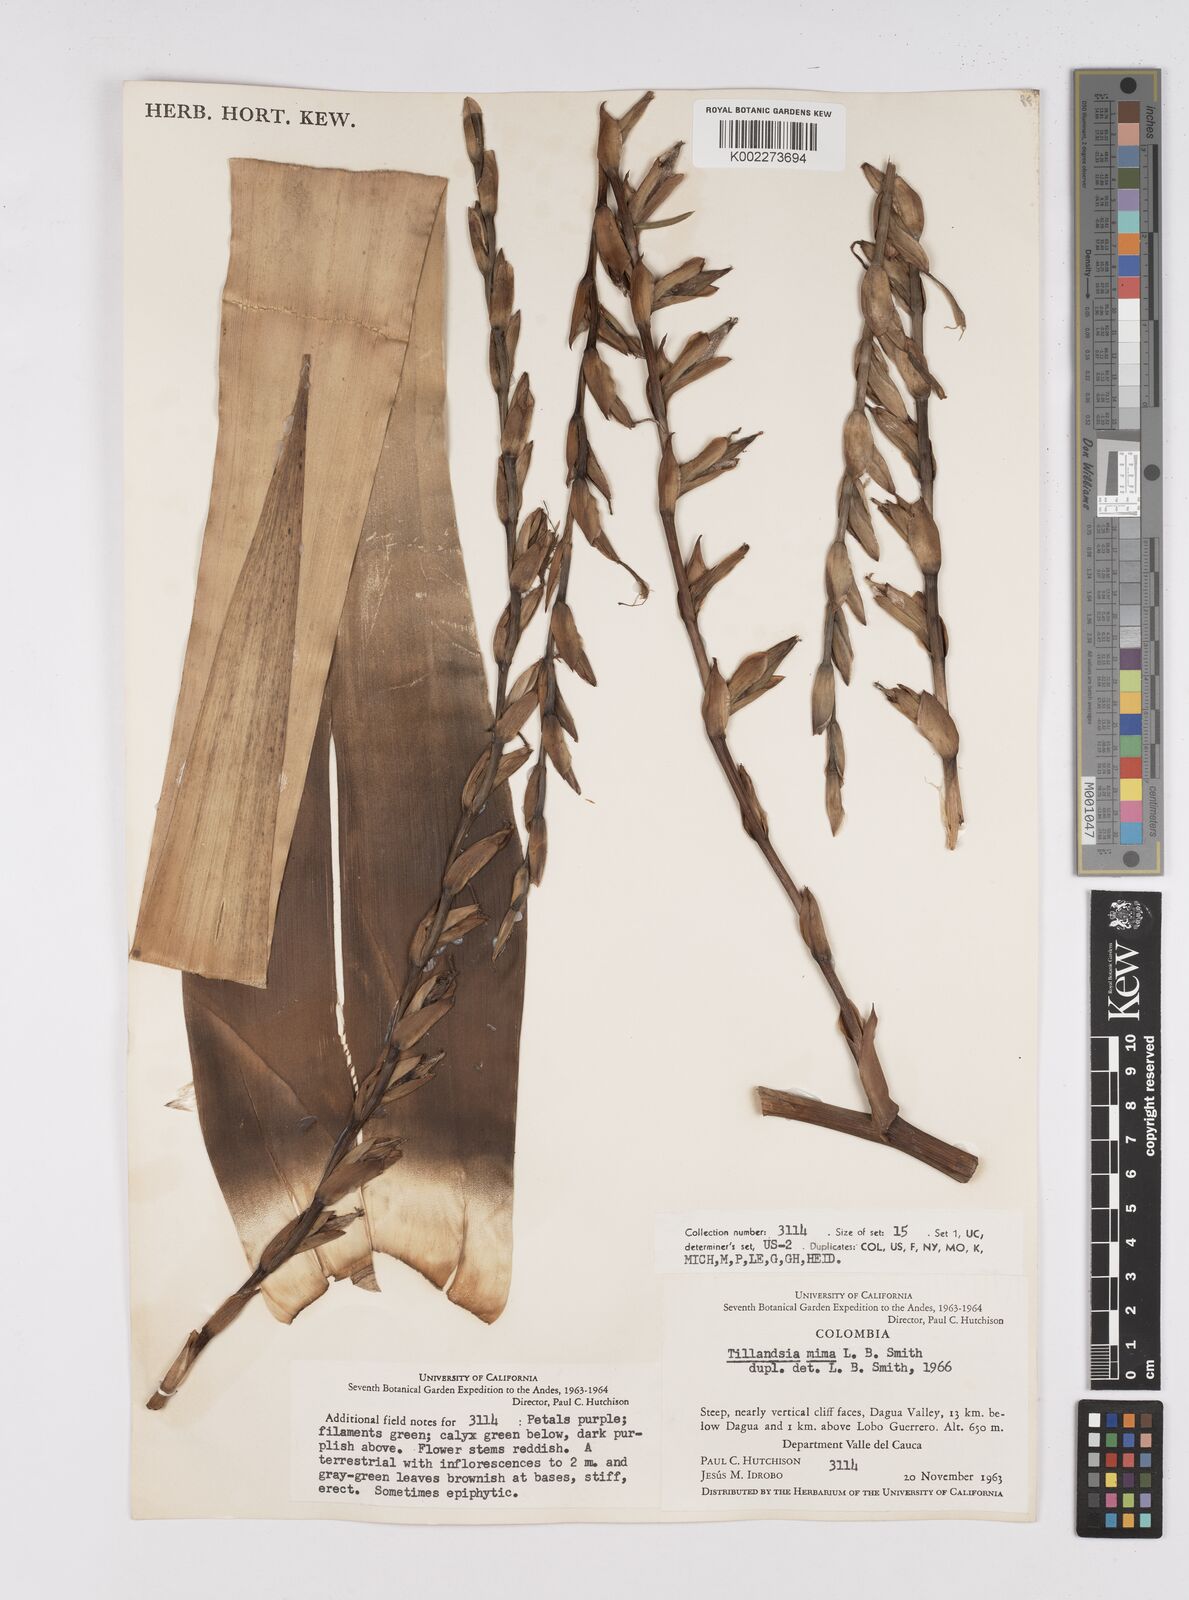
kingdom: Plantae
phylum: Tracheophyta
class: Liliopsida
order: Poales
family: Bromeliaceae
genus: Tillandsia
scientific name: Tillandsia mima
